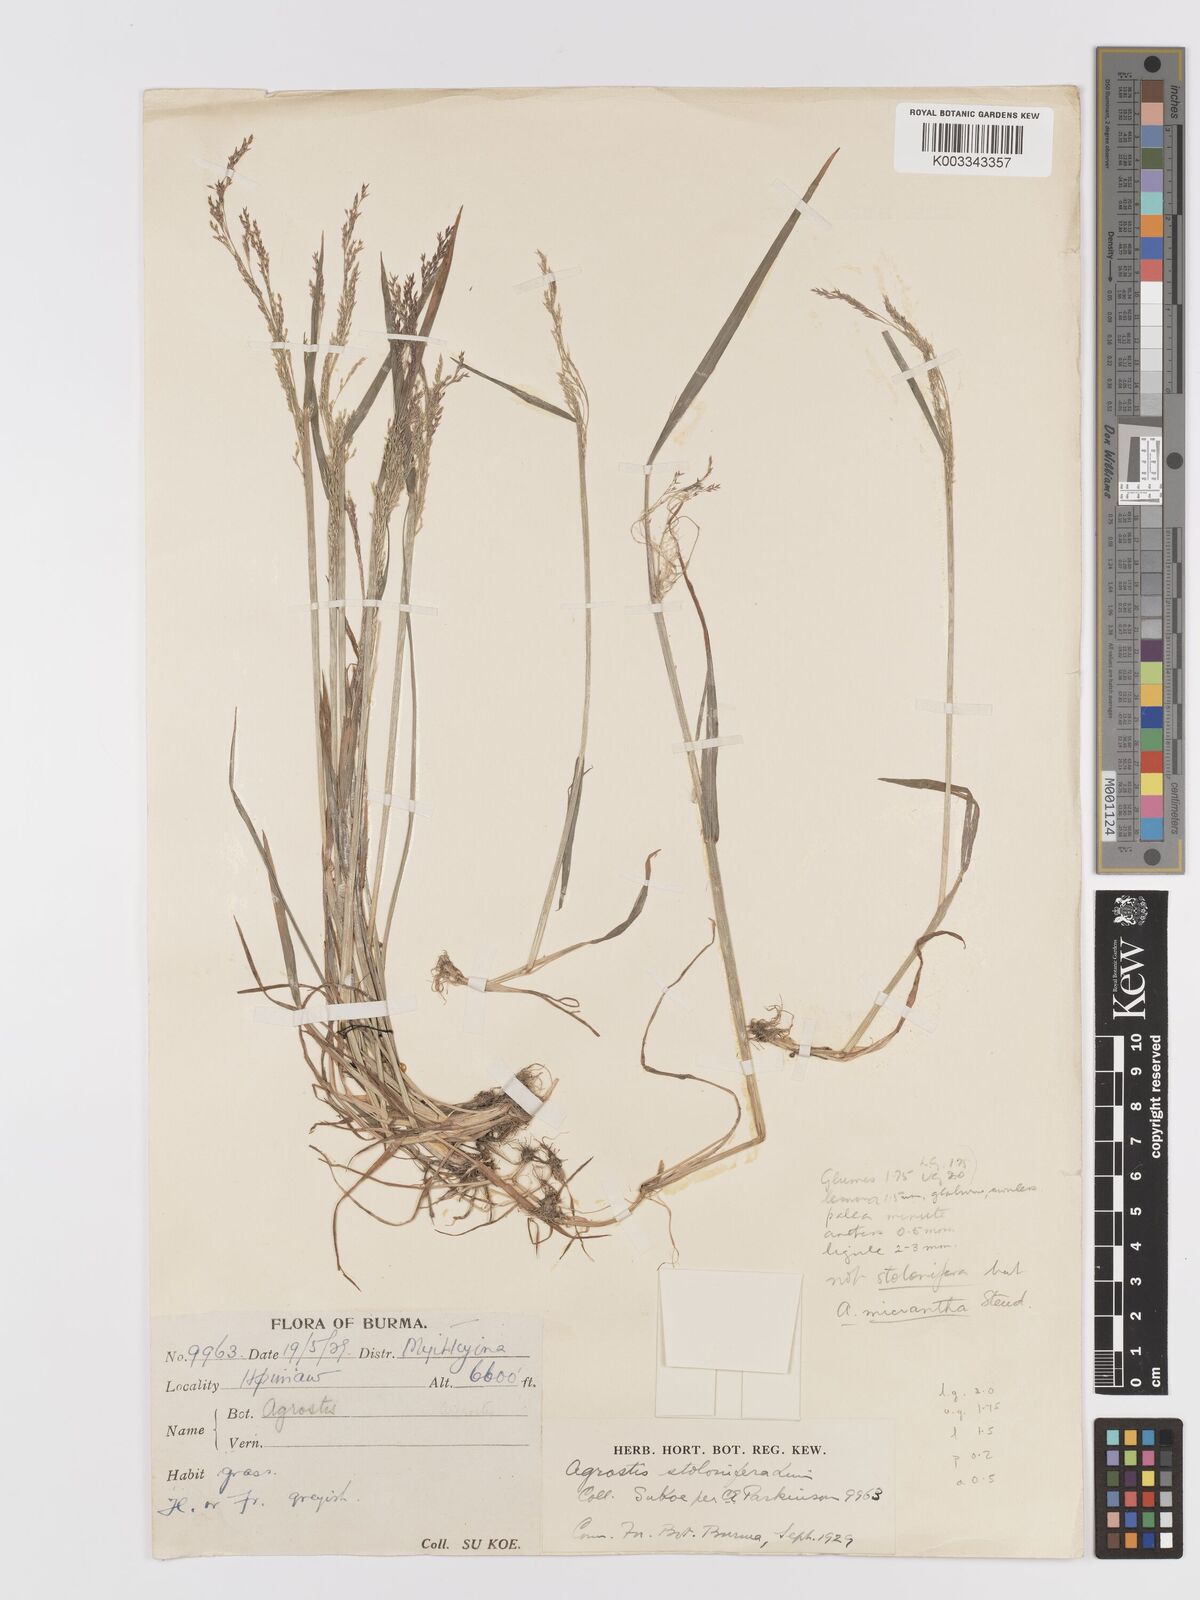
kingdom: Plantae
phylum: Tracheophyta
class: Liliopsida
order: Poales
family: Poaceae
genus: Agrostis
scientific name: Agrostis
